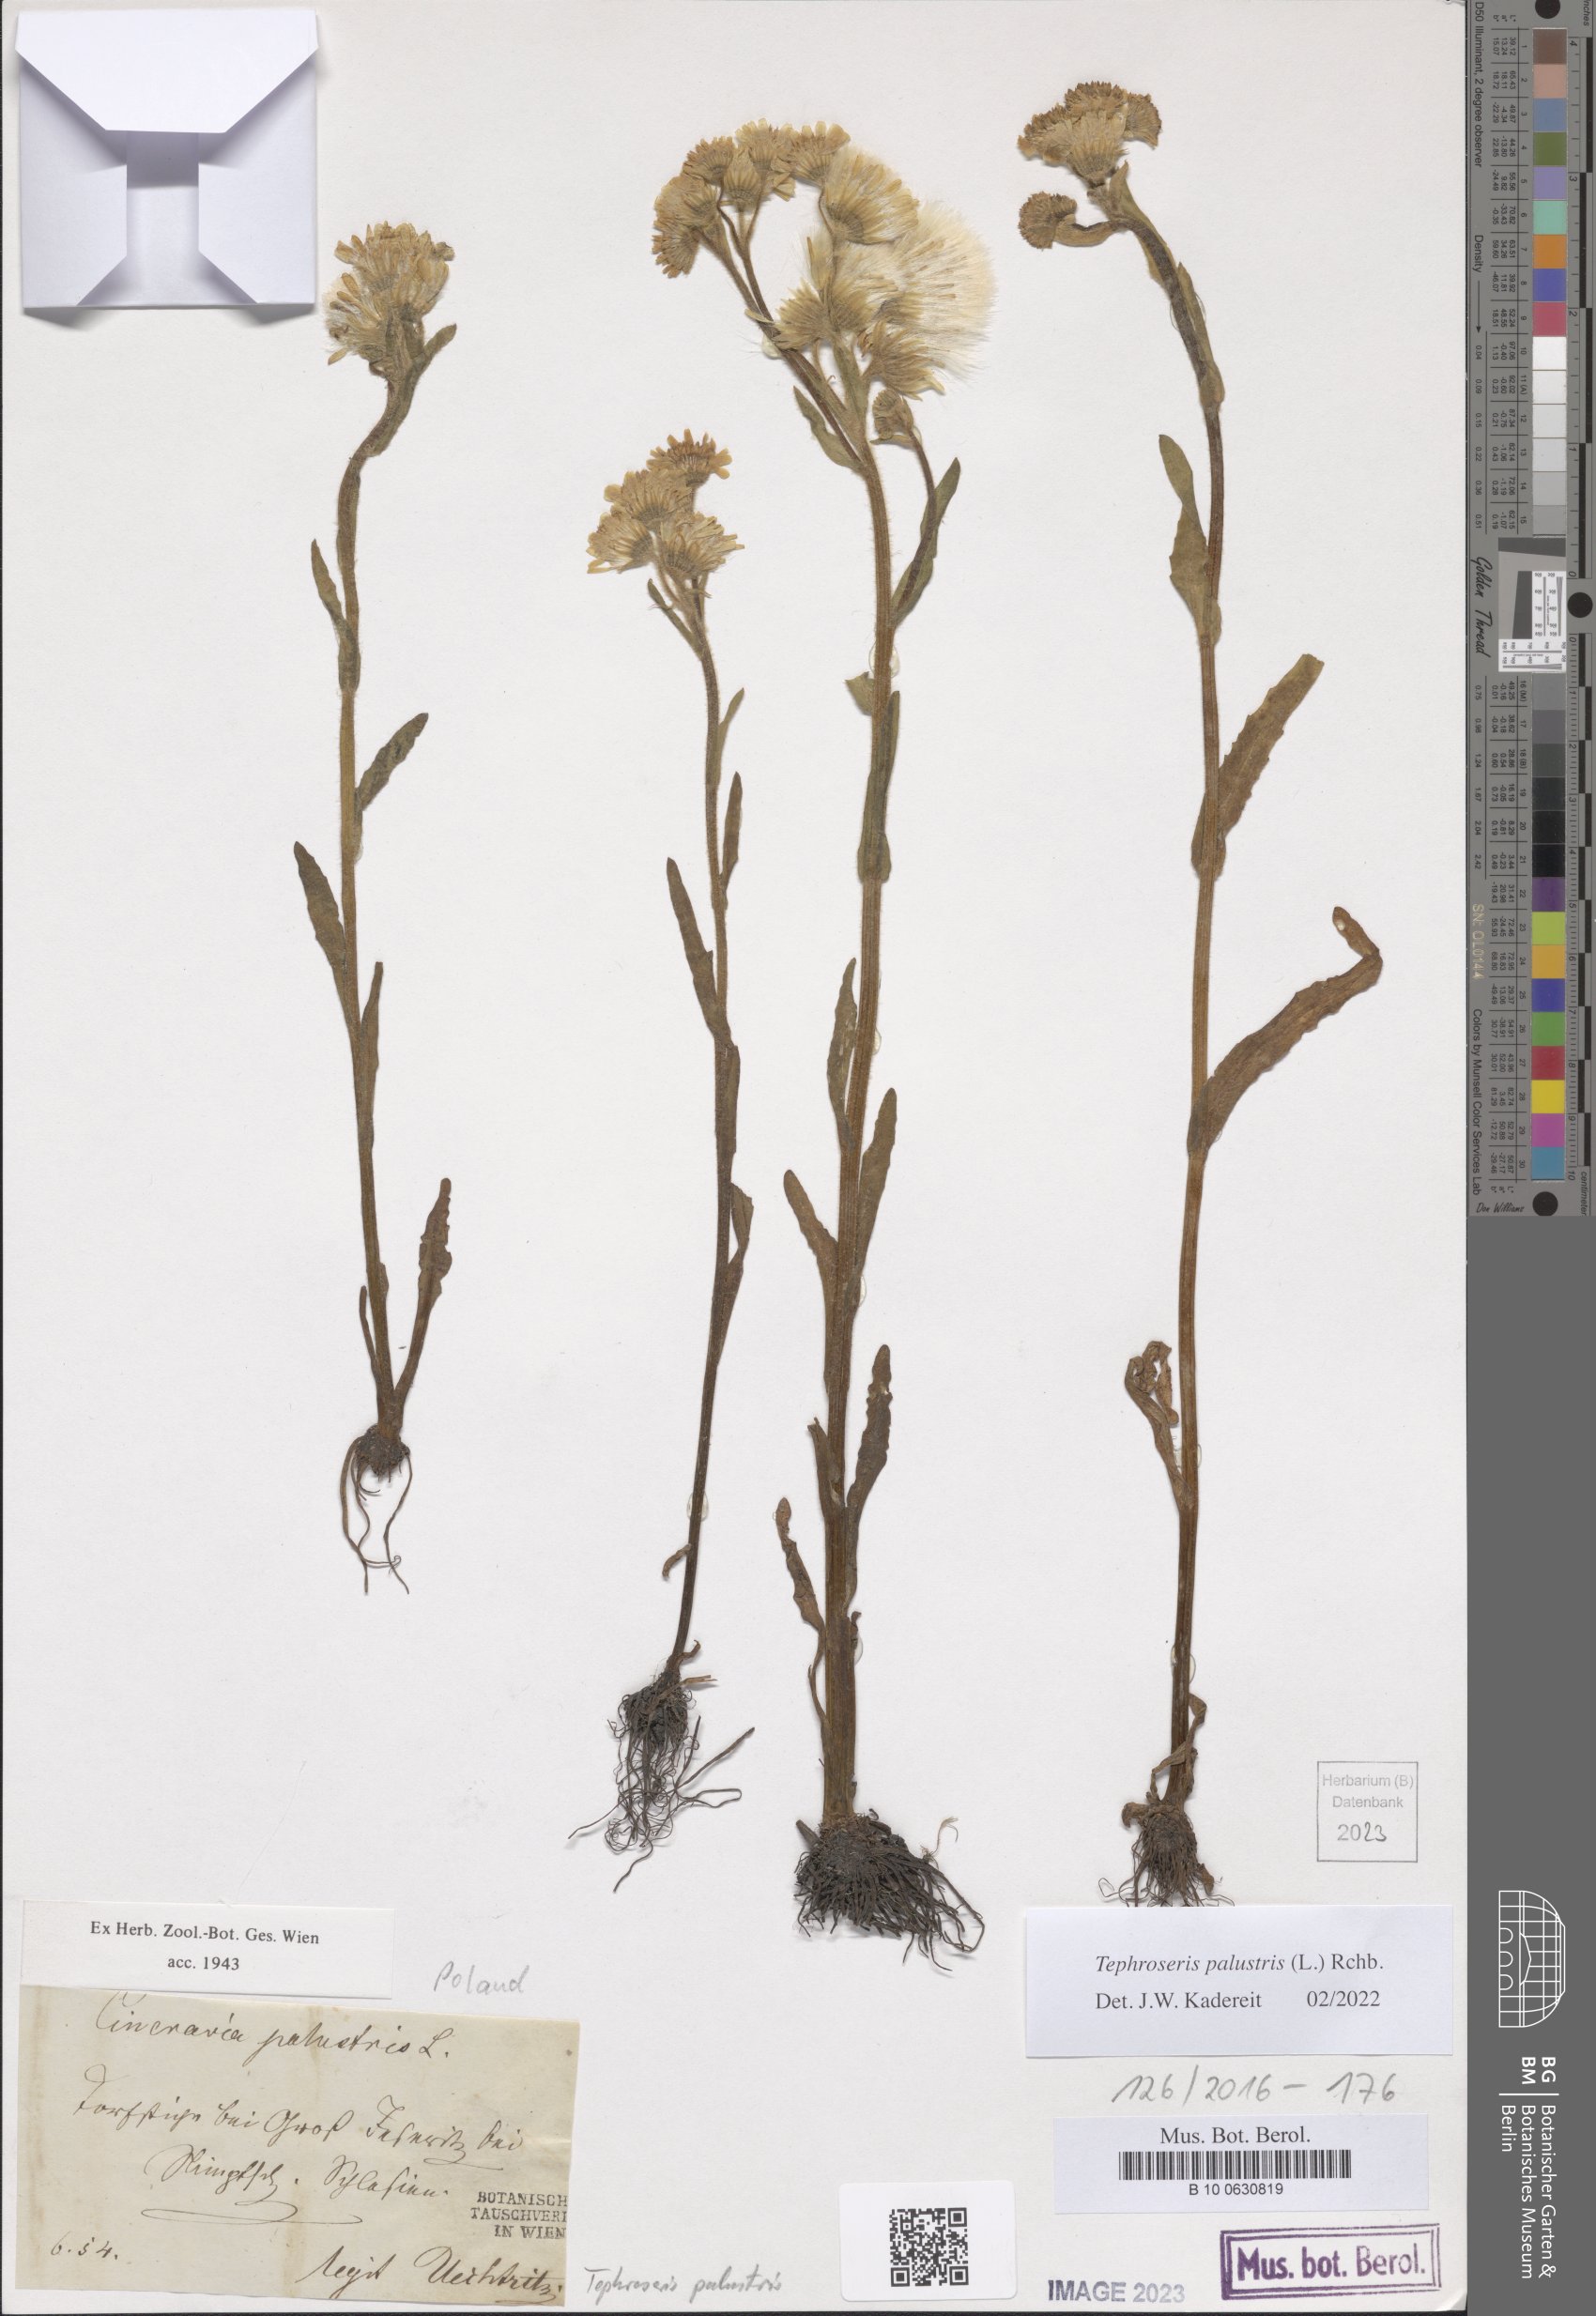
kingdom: Plantae
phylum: Tracheophyta
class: Magnoliopsida
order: Asterales
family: Asteraceae
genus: Tephroseris
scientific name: Tephroseris palustris
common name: Marsh fleawort
